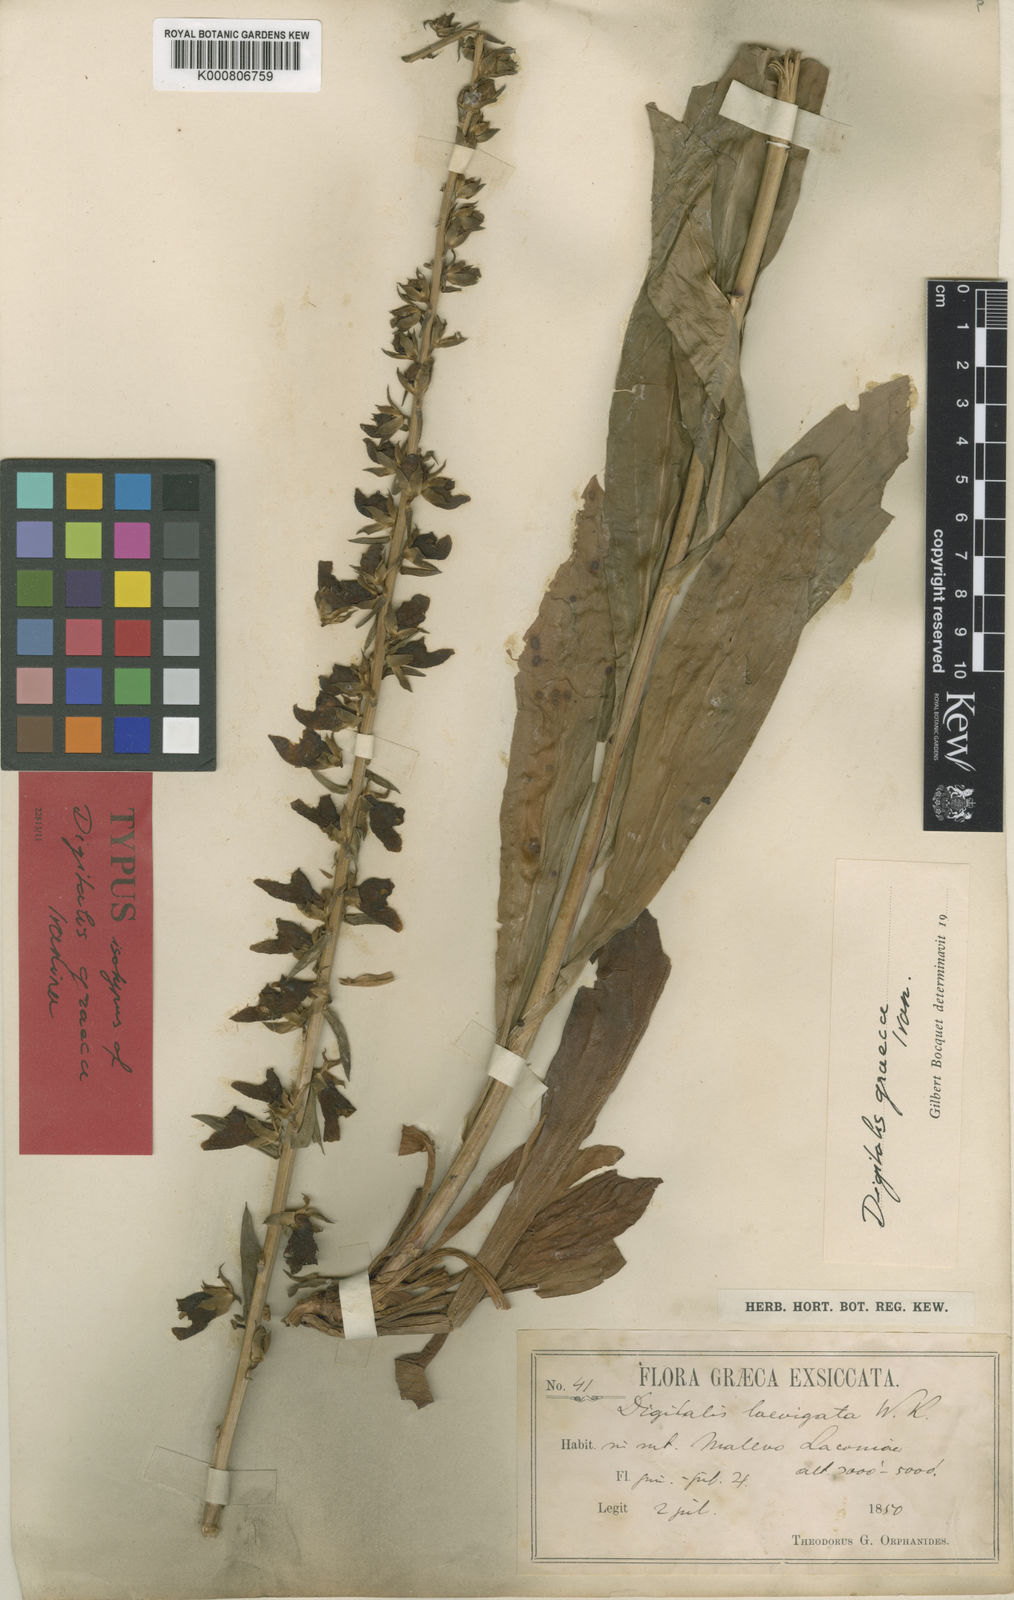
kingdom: Plantae
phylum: Tracheophyta
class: Magnoliopsida
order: Lamiales
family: Plantaginaceae
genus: Digitalis
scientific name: Digitalis laevigata
